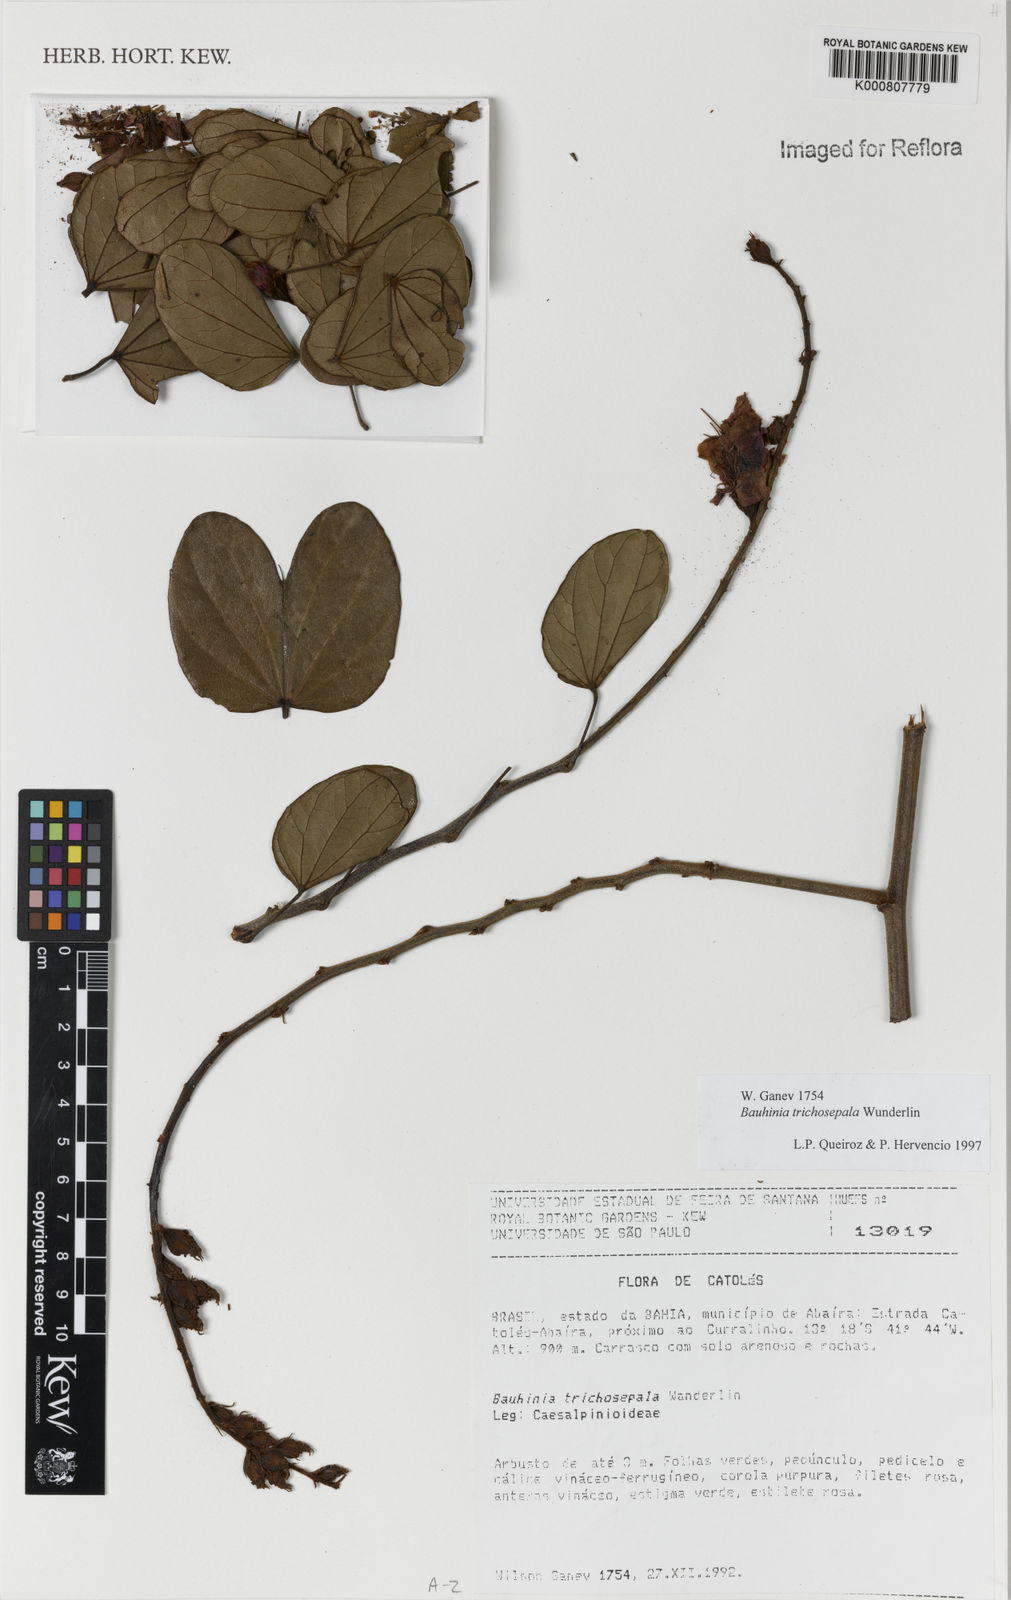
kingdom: Plantae
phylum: Tracheophyta
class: Magnoliopsida
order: Fabales
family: Fabaceae
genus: Schnella
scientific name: Schnella trichosepala
